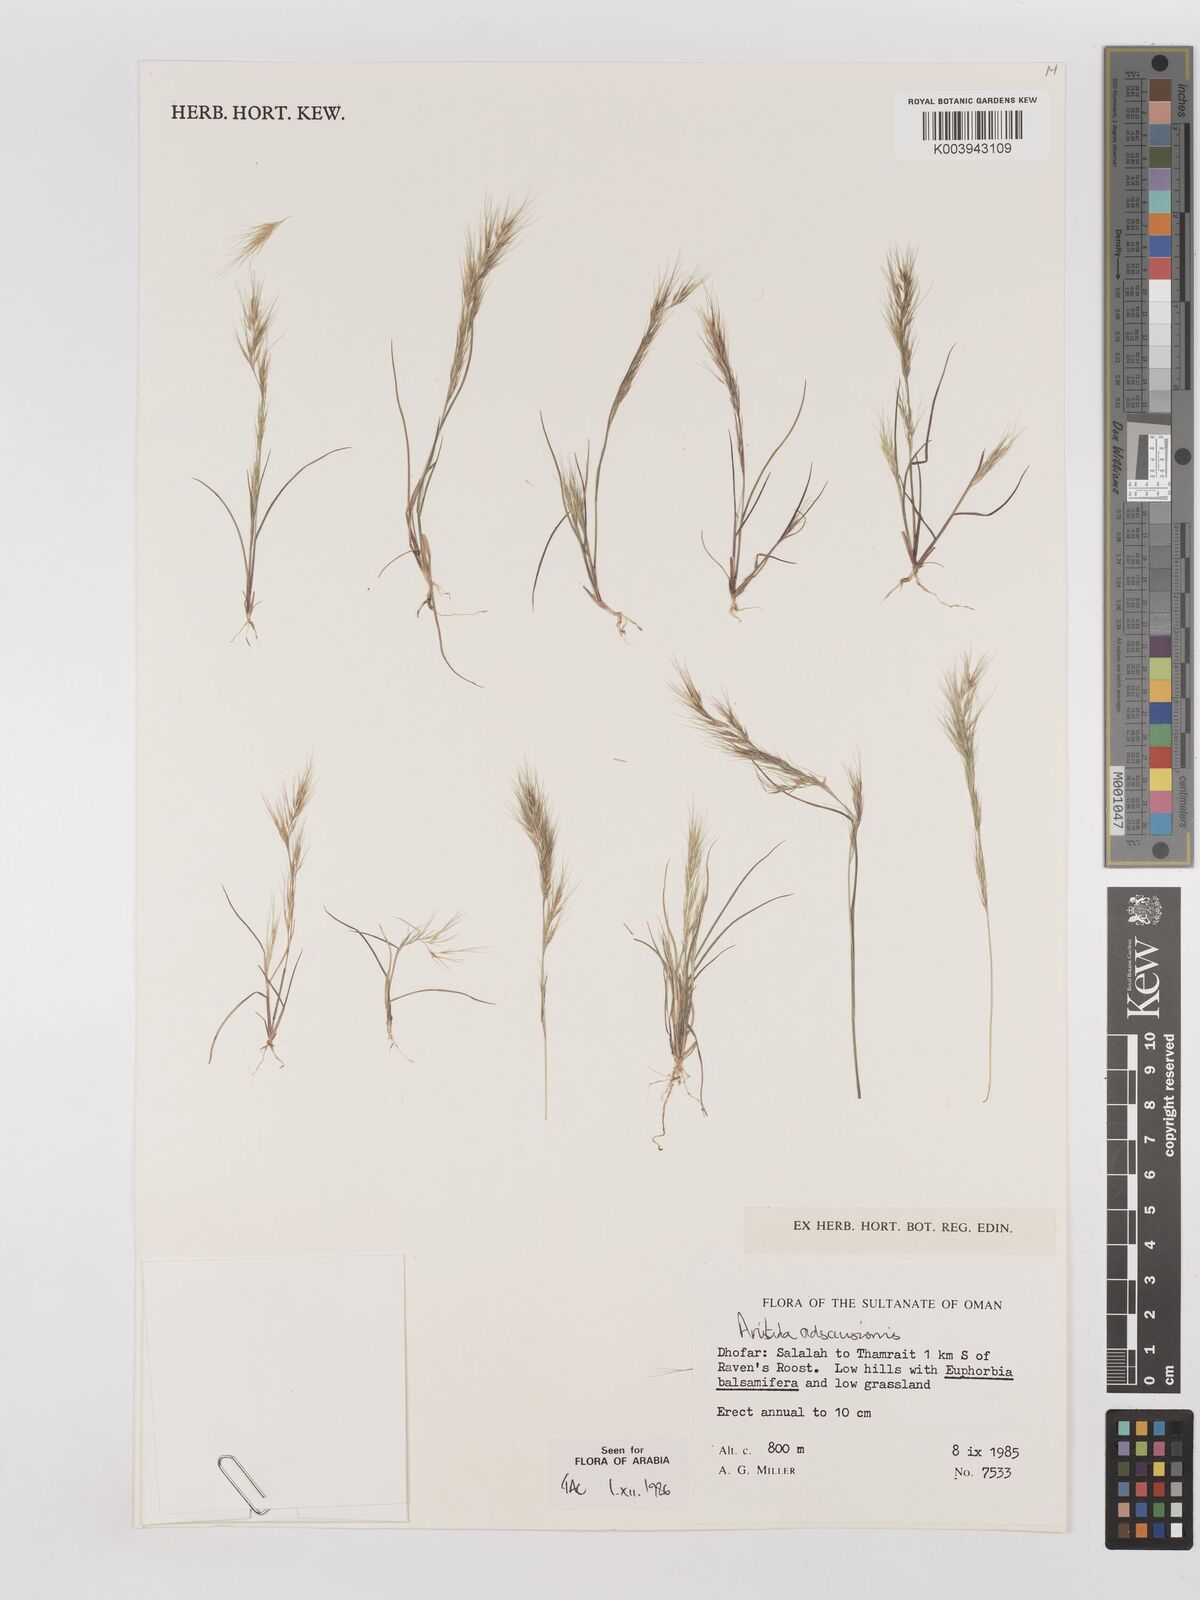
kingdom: Plantae
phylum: Tracheophyta
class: Liliopsida
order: Poales
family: Poaceae
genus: Aristida
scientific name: Aristida adscensionis
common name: Sixweeks threeawn
